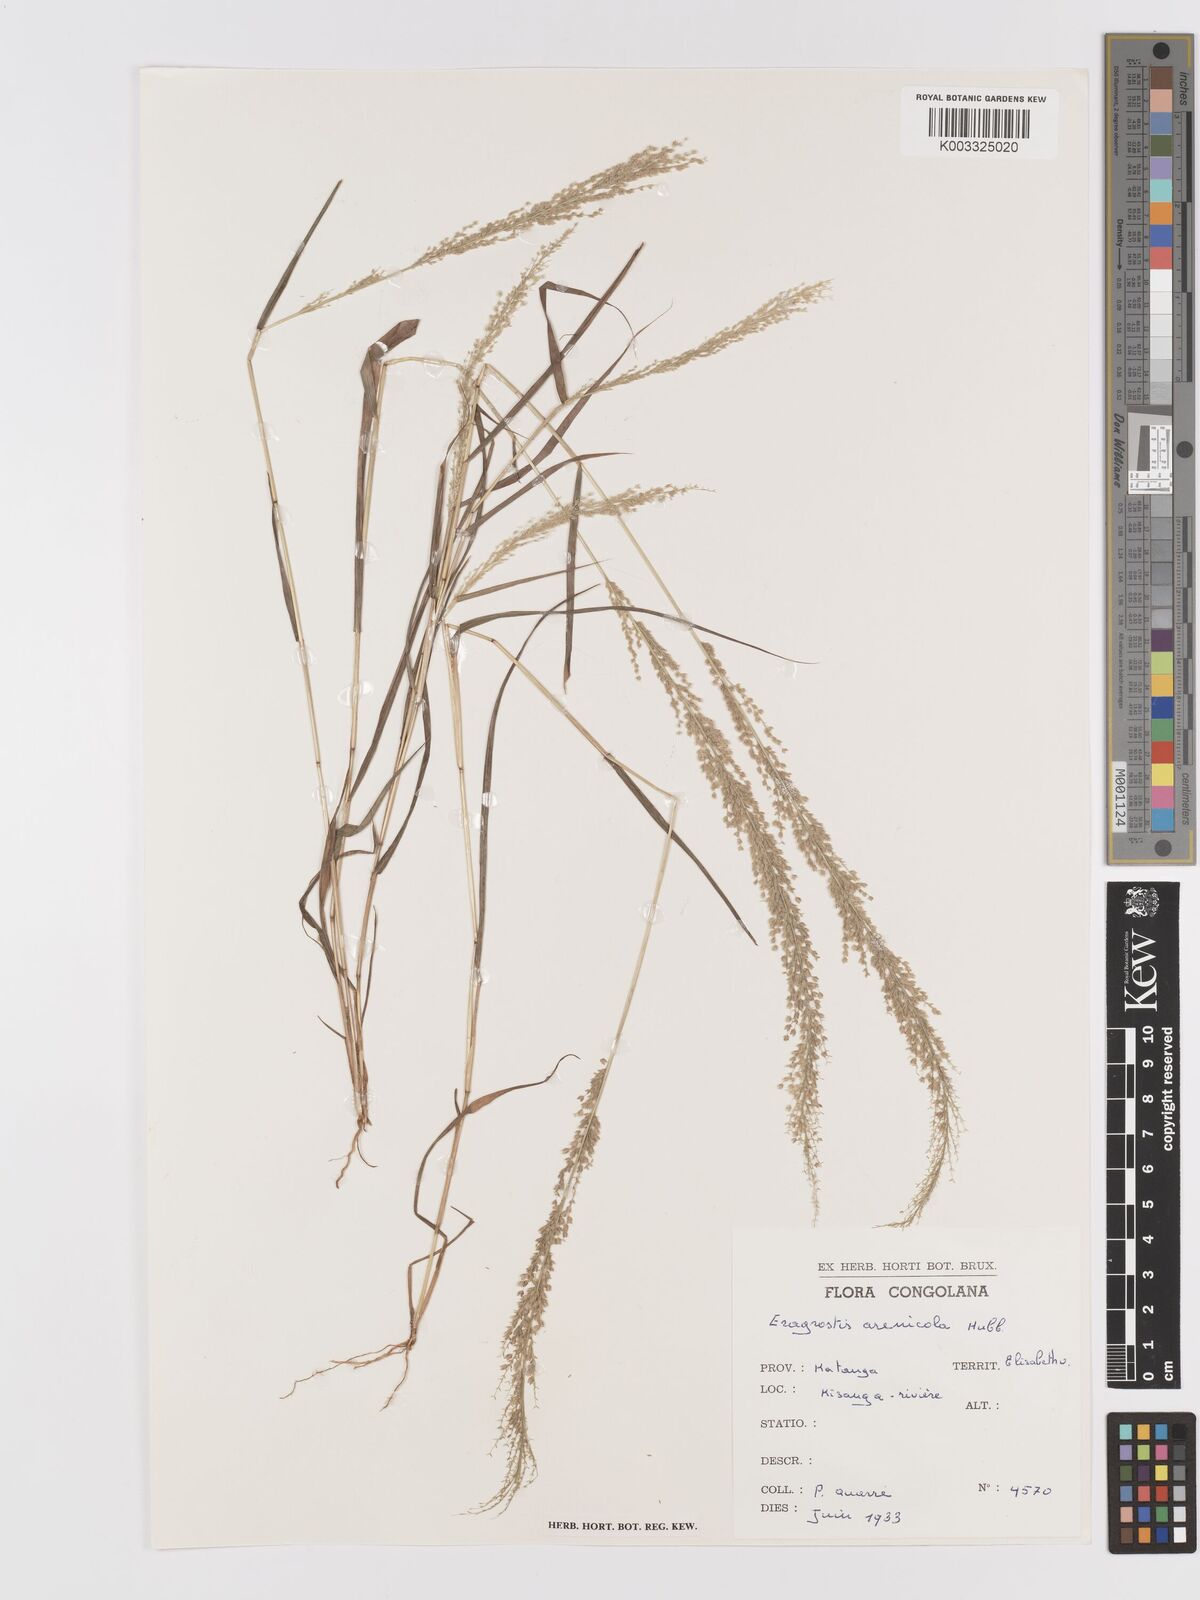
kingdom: Plantae
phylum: Tracheophyta
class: Liliopsida
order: Poales
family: Poaceae
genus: Eragrostis
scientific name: Eragrostis arenicola
